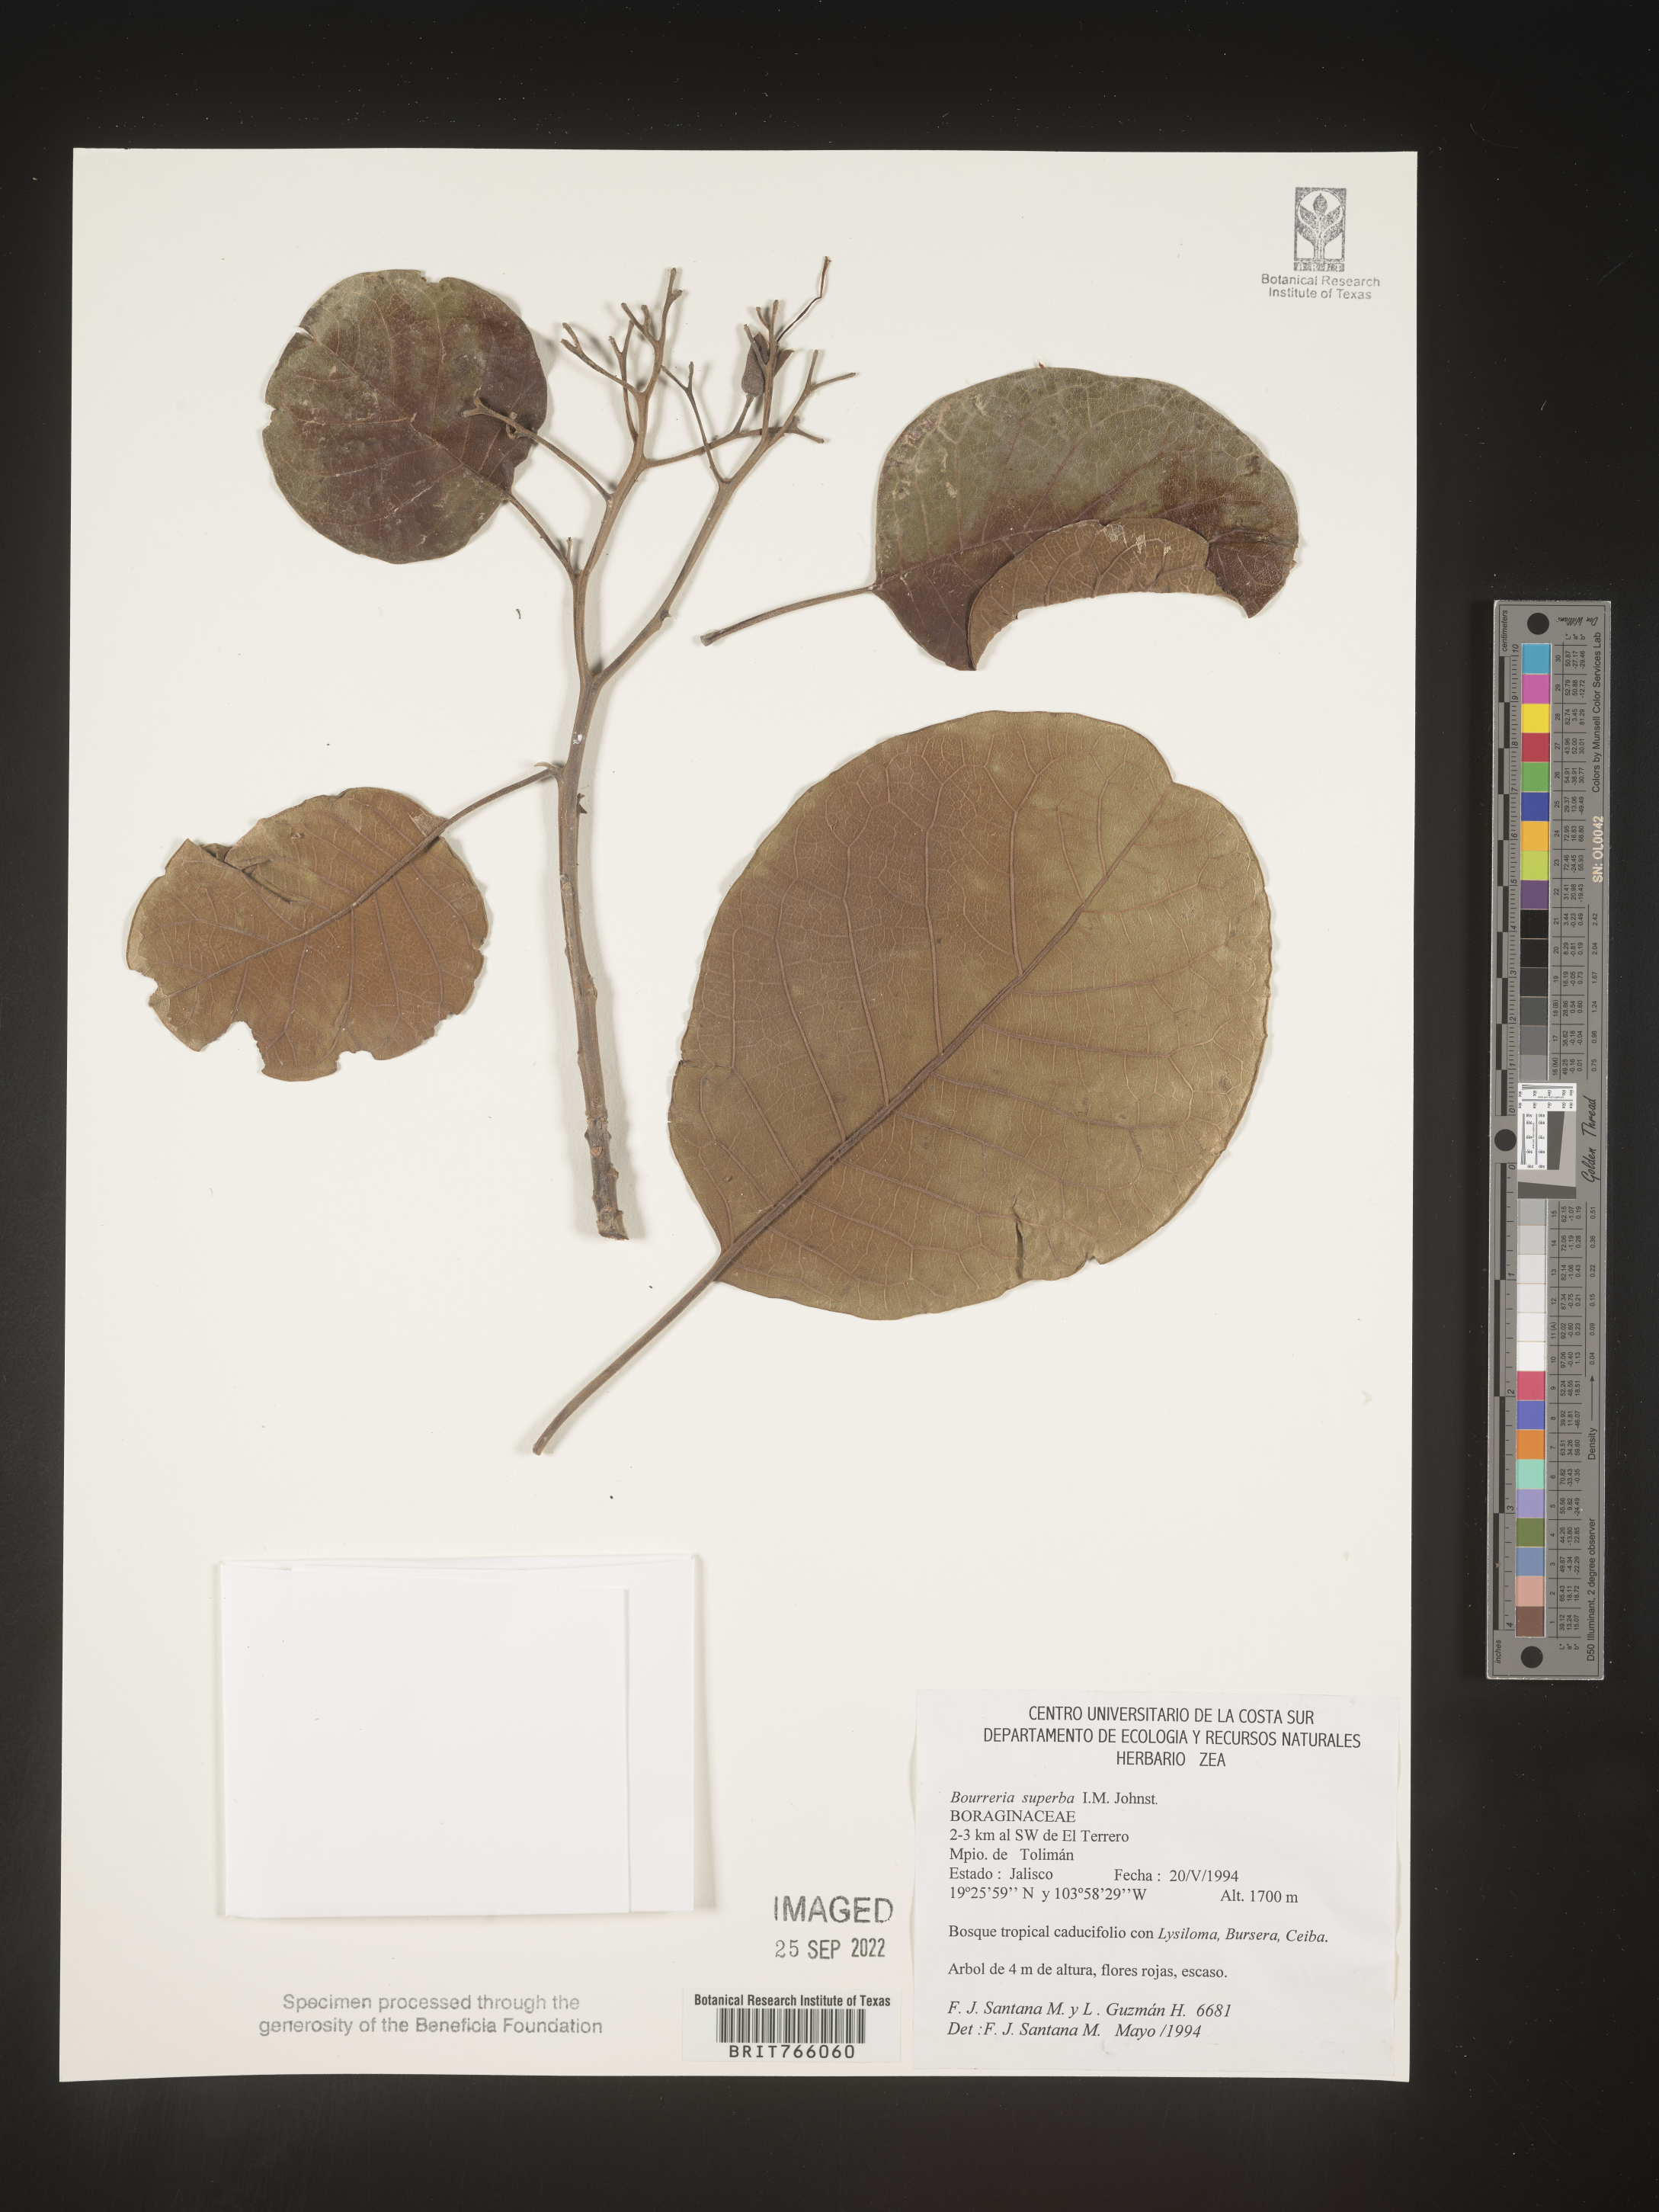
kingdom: Plantae
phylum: Tracheophyta
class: Magnoliopsida
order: Boraginales
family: Ehretiaceae
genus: Bourreria
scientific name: Bourreria
